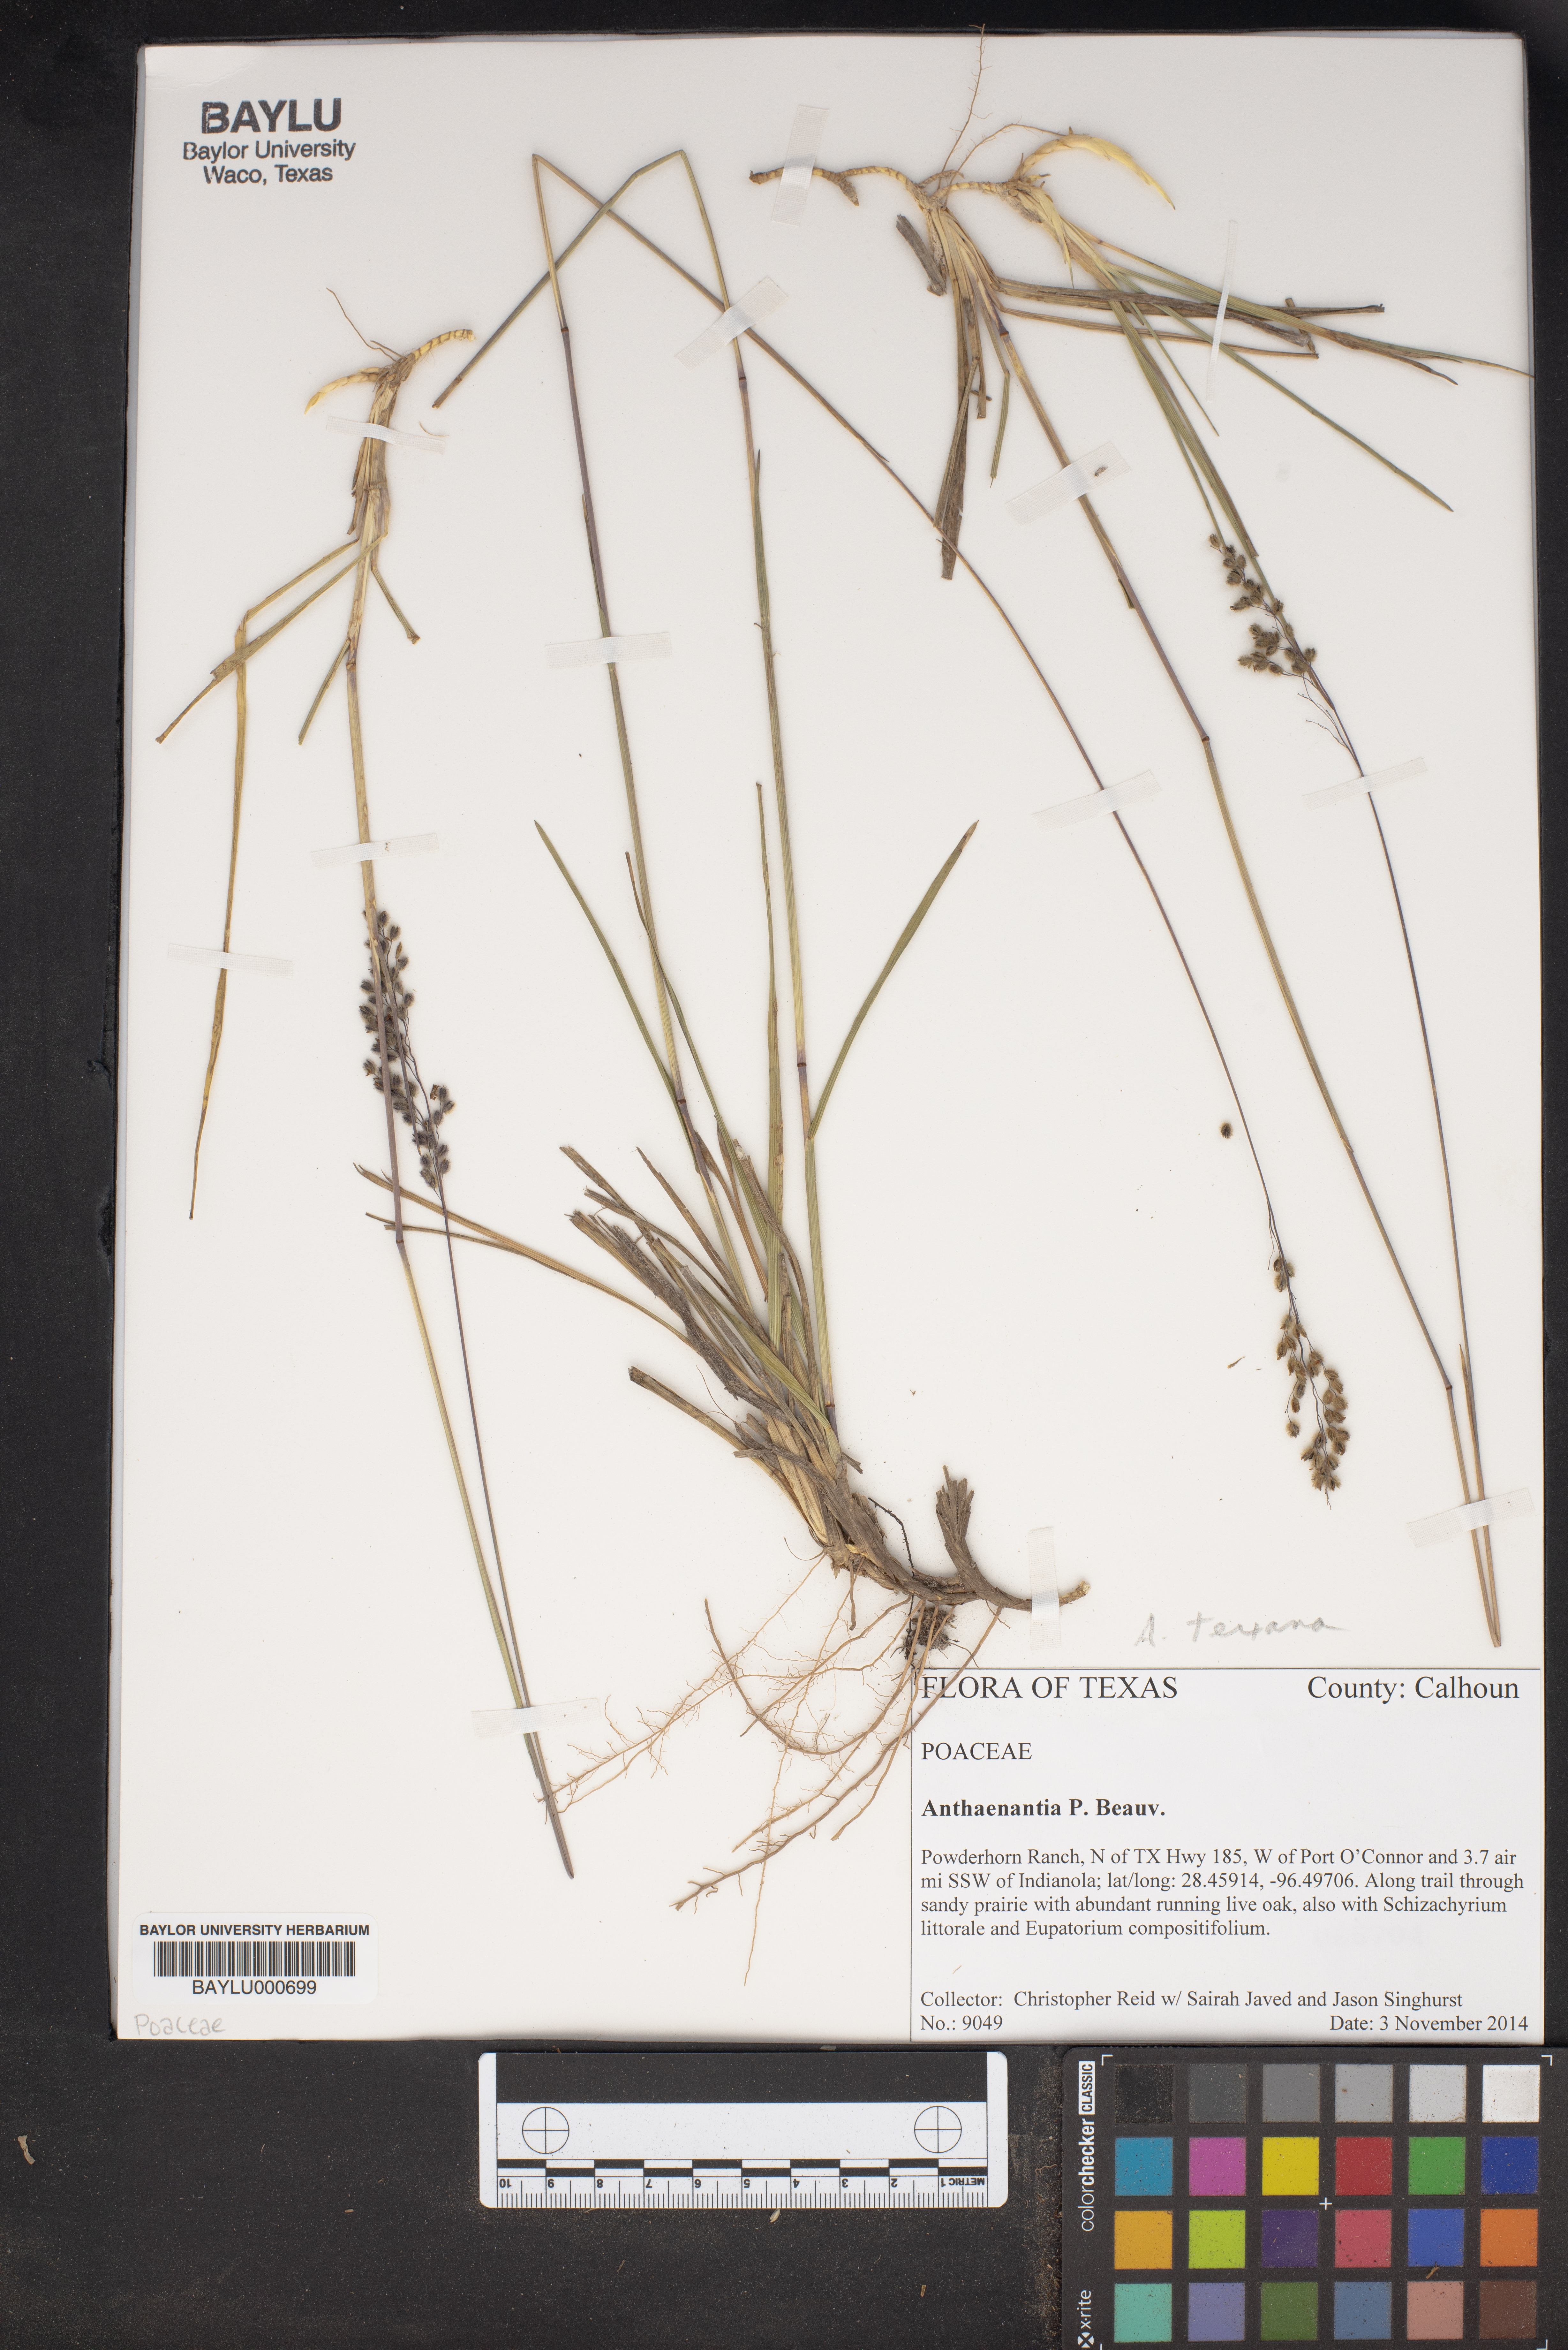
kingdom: Plantae
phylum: Tracheophyta
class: Liliopsida
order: Poales
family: Poaceae
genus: Anthaenantia
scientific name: Anthaenantia texana
